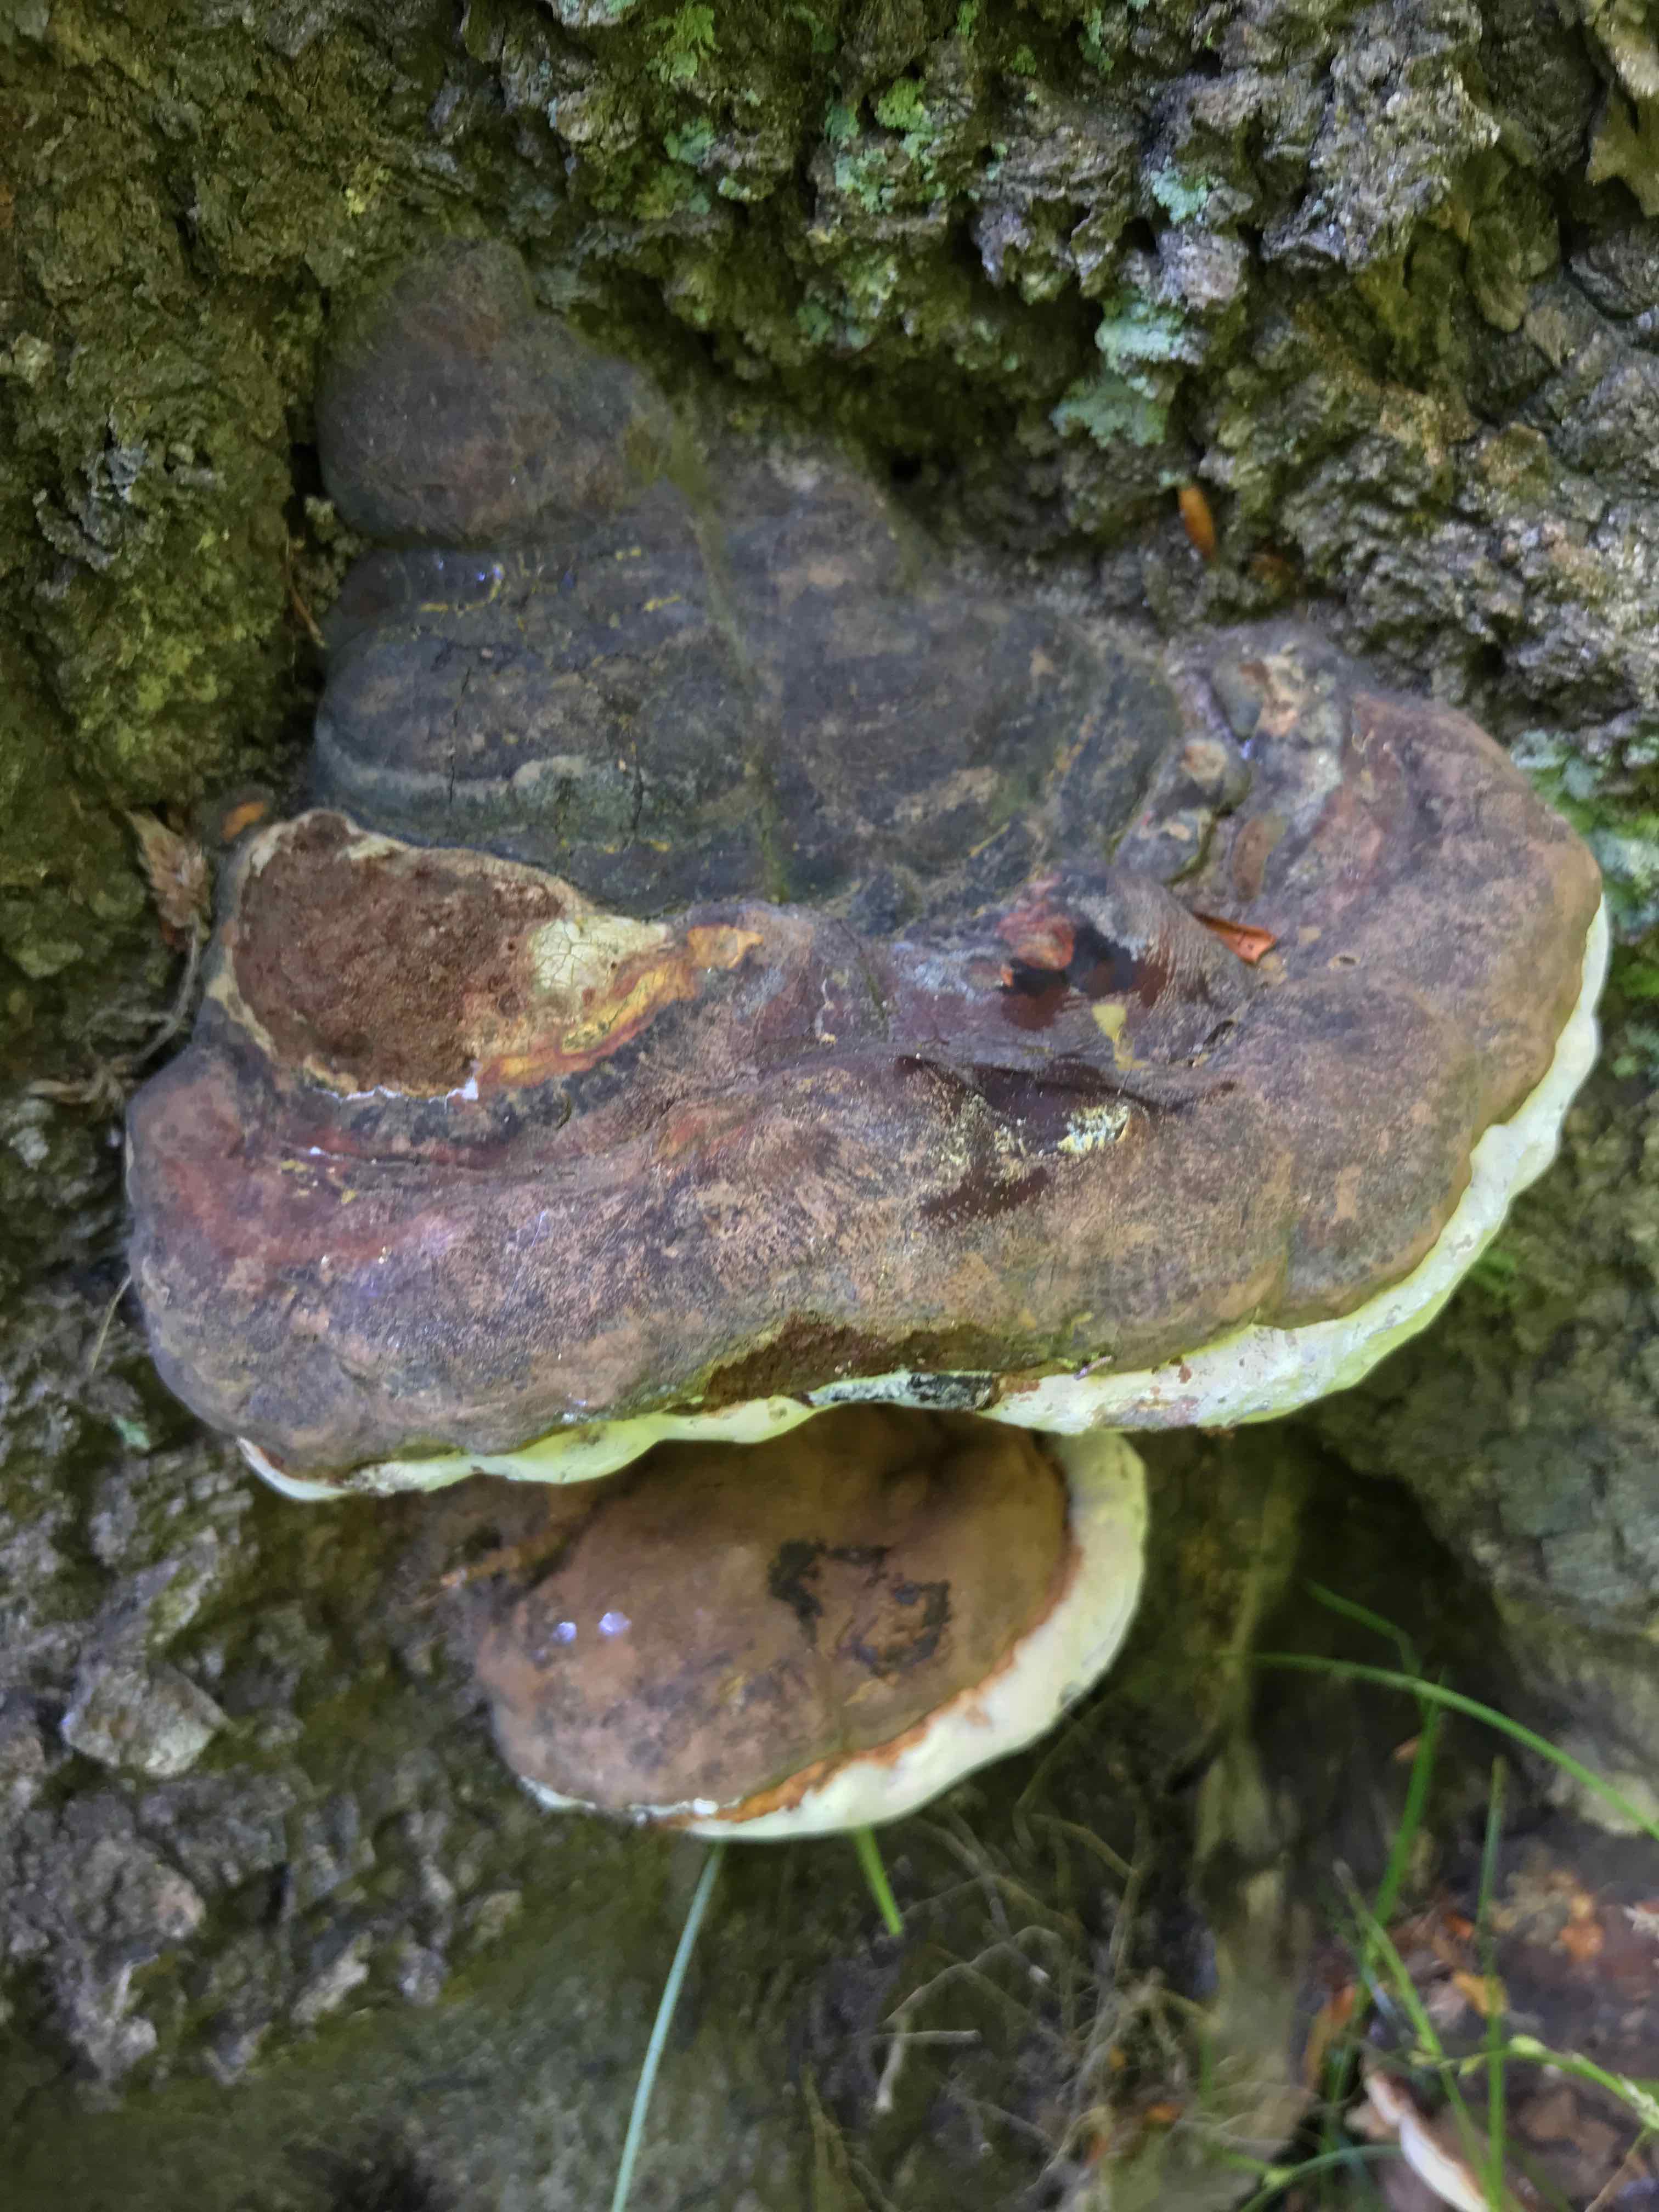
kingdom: Fungi
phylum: Basidiomycota
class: Agaricomycetes
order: Polyporales
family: Polyporaceae
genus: Ganoderma
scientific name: Ganoderma pfeifferi
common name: kobberrød lakporesvamp
